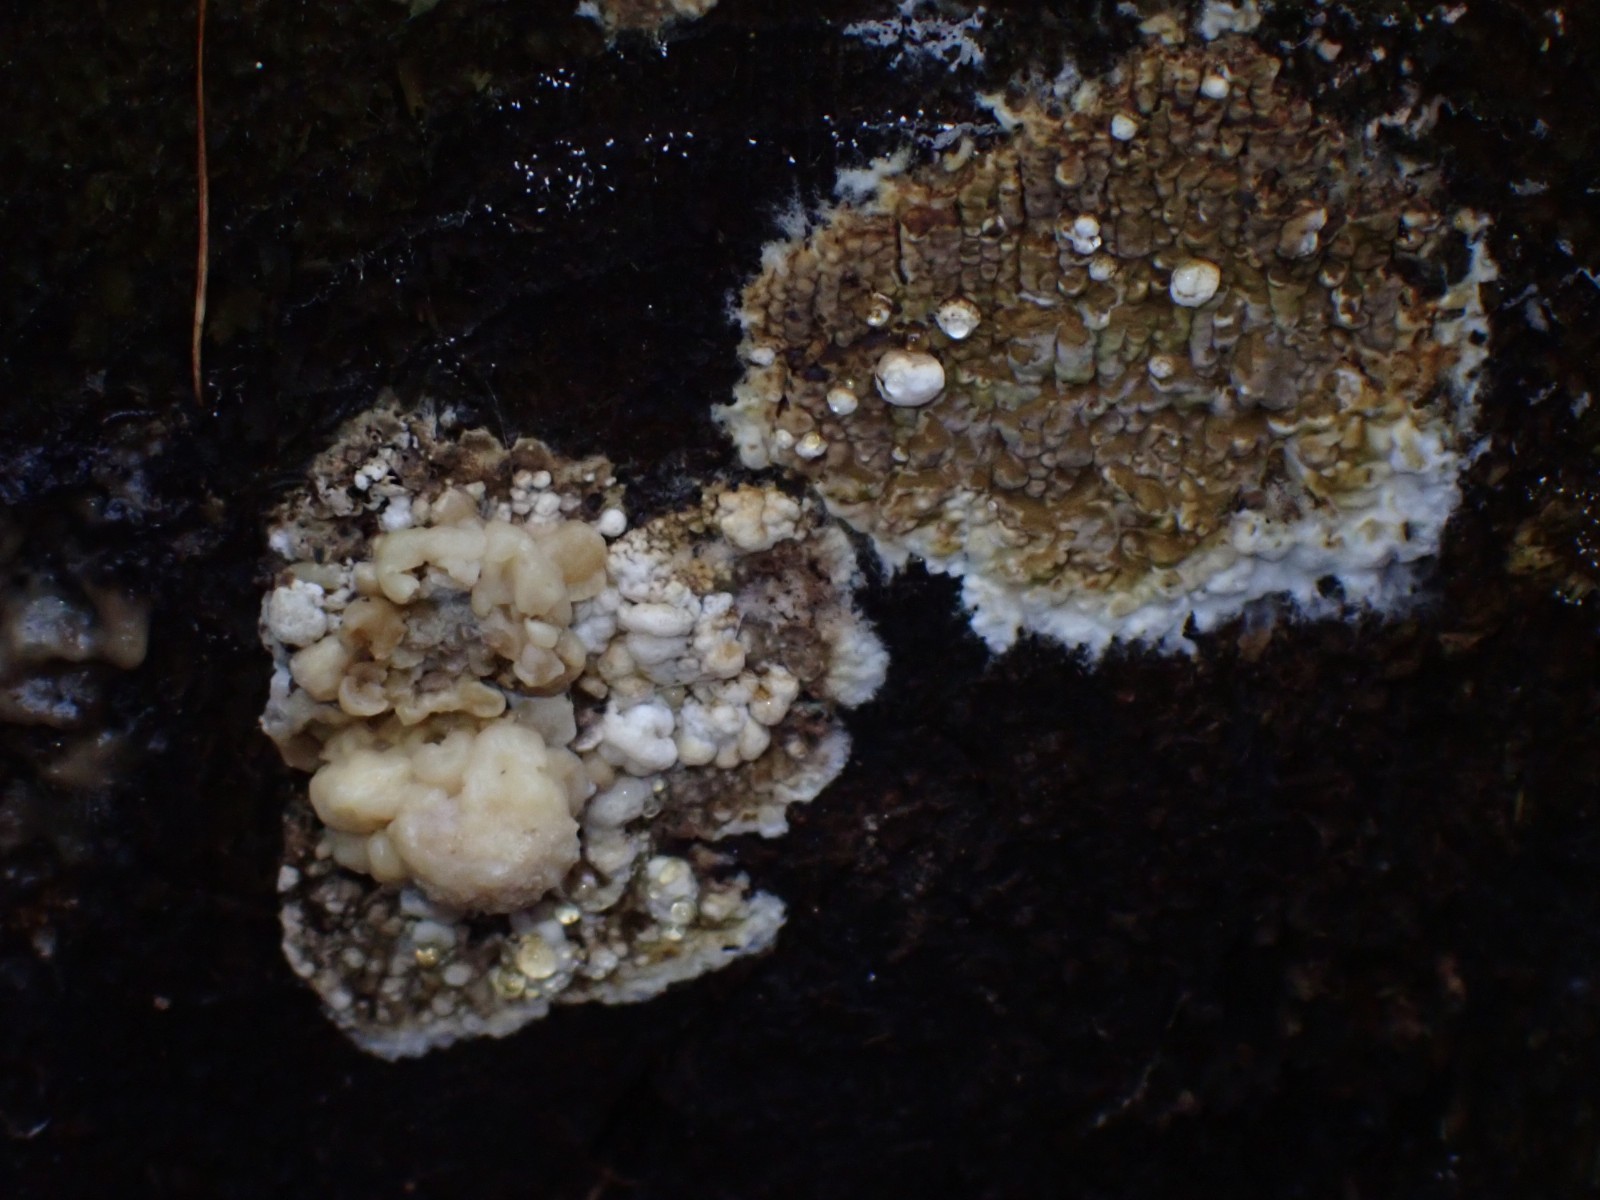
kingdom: Fungi
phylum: Ascomycota
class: Sordariomycetes
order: Xylariales
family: Hypoxylaceae
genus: Nodulisporium
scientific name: Nodulisporium cecidiogenes
